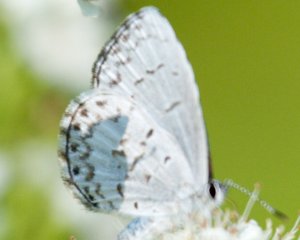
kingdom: Animalia
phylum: Arthropoda
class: Insecta
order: Lepidoptera
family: Lycaenidae
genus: Celastrina
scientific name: Celastrina
